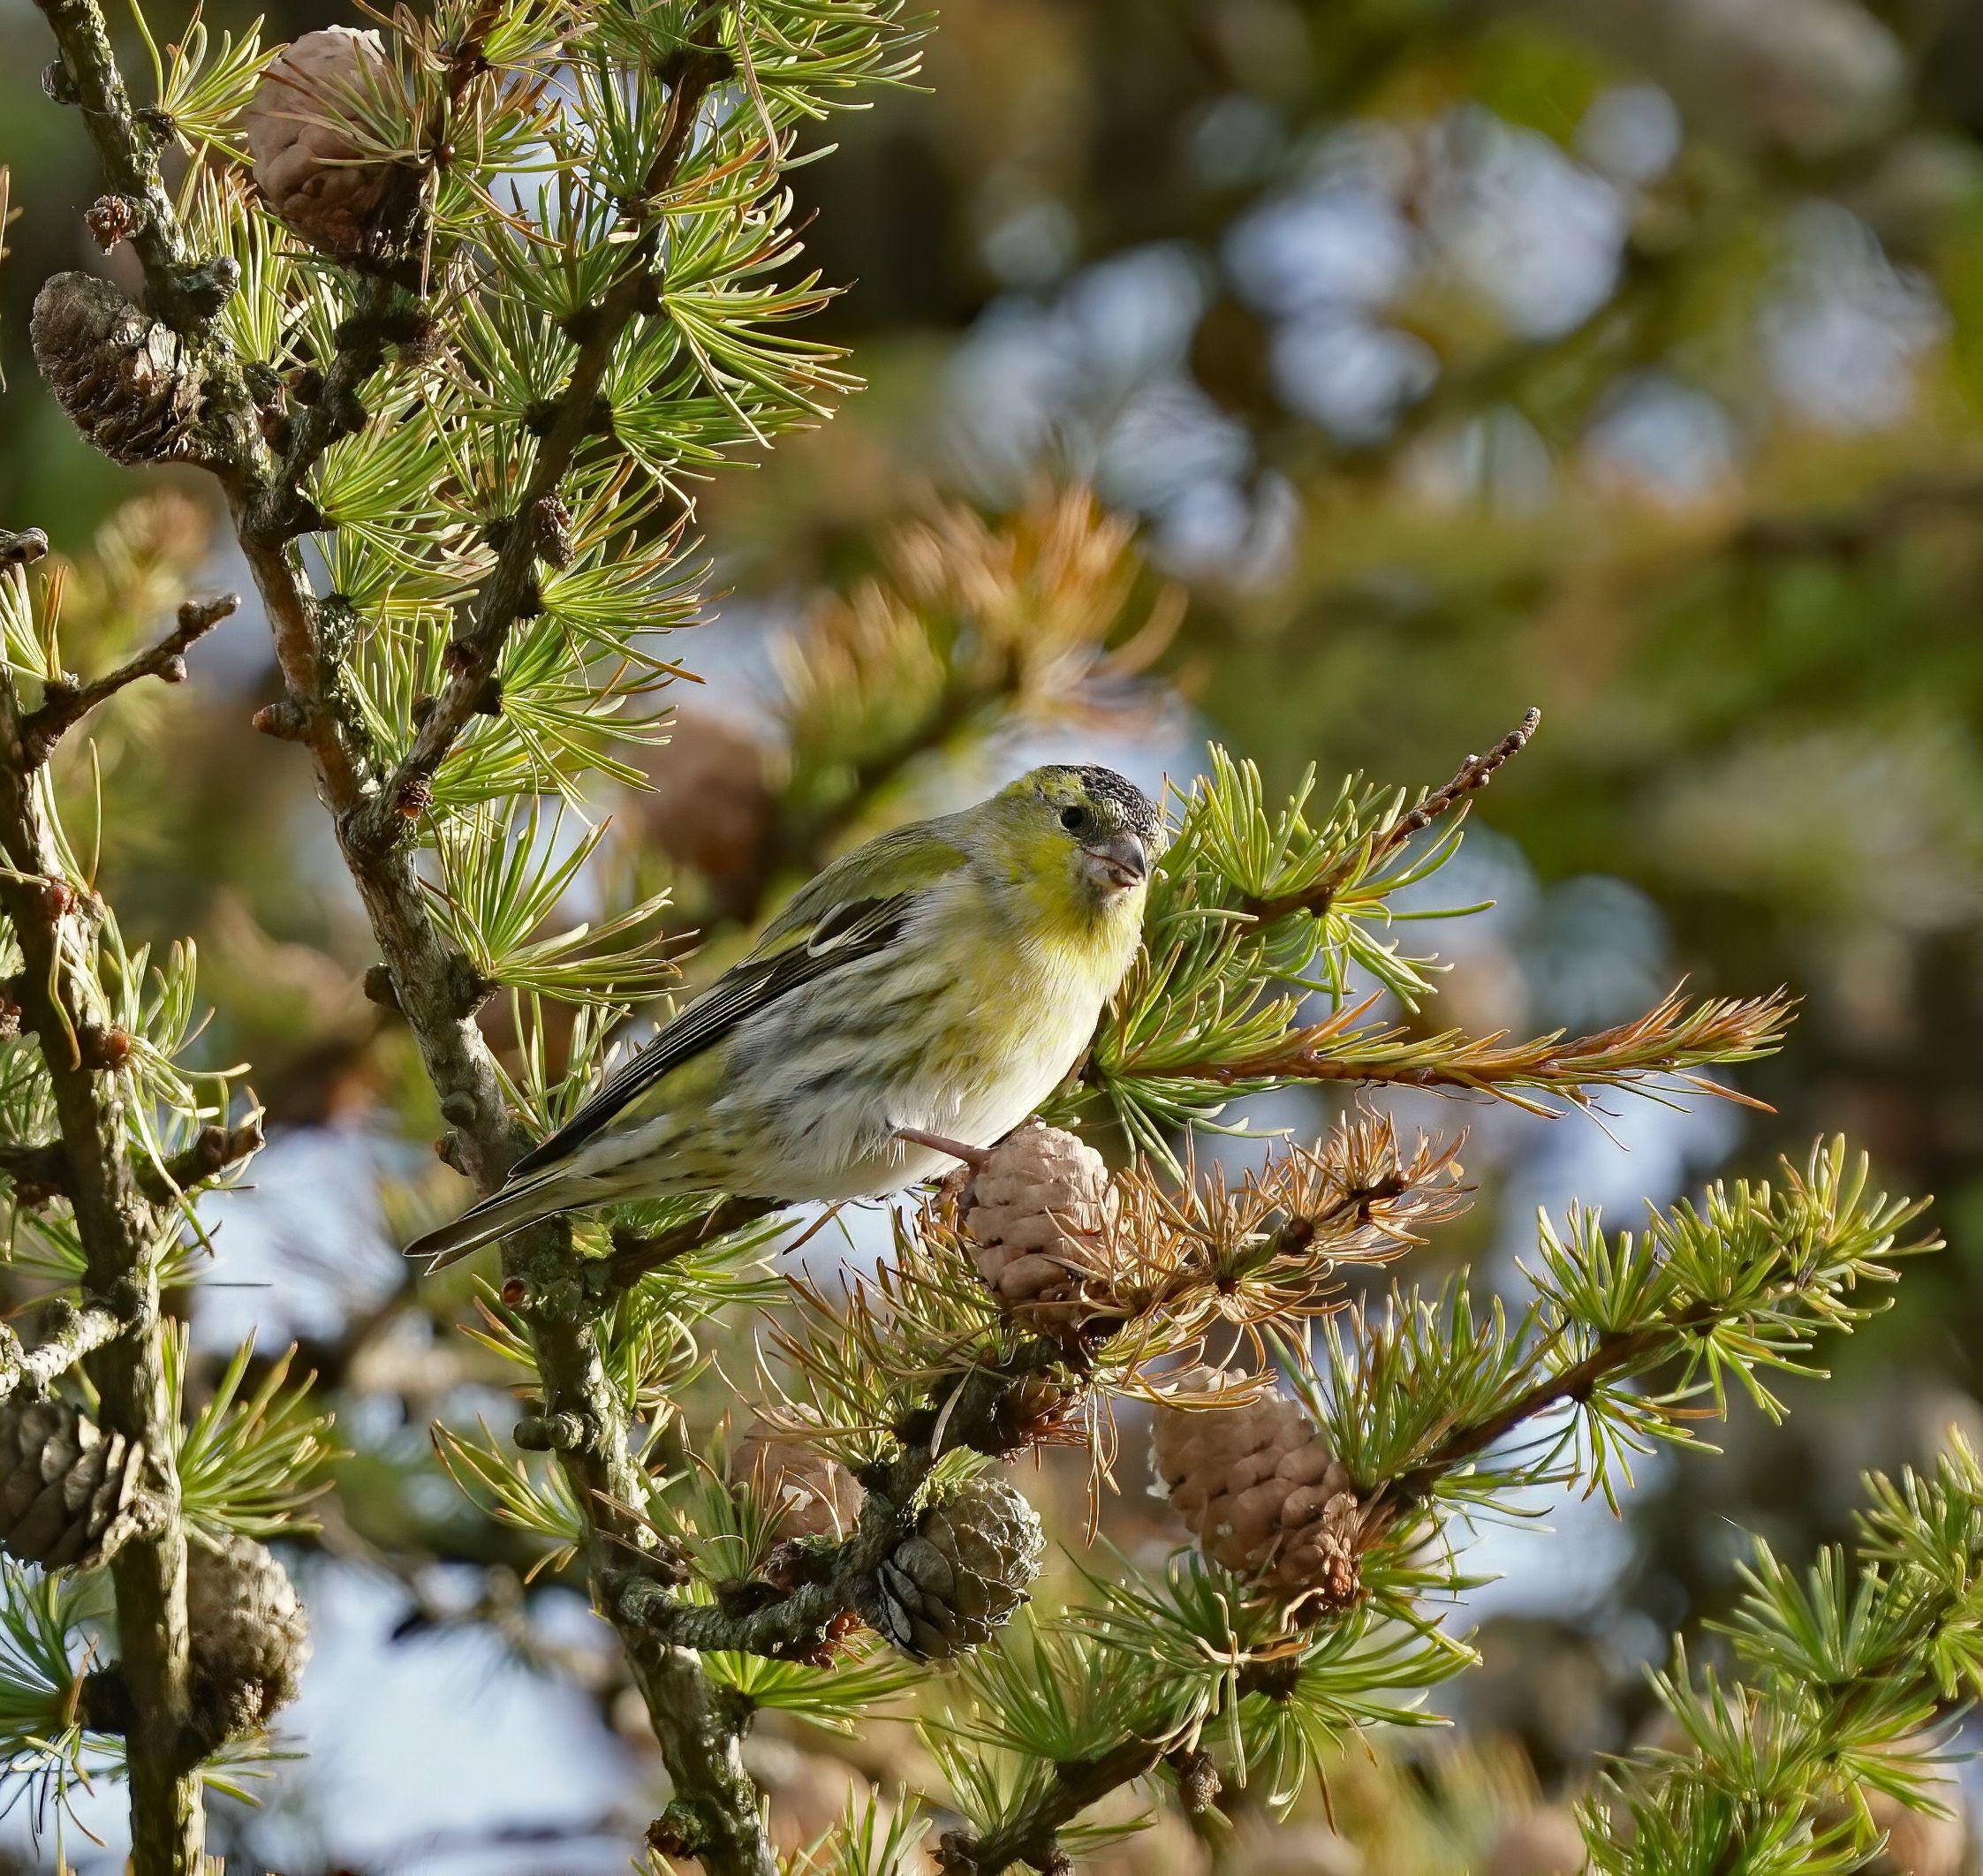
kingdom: Animalia
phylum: Chordata
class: Aves
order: Passeriformes
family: Fringillidae
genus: Spinus
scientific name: Spinus spinus
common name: Grønsisken
